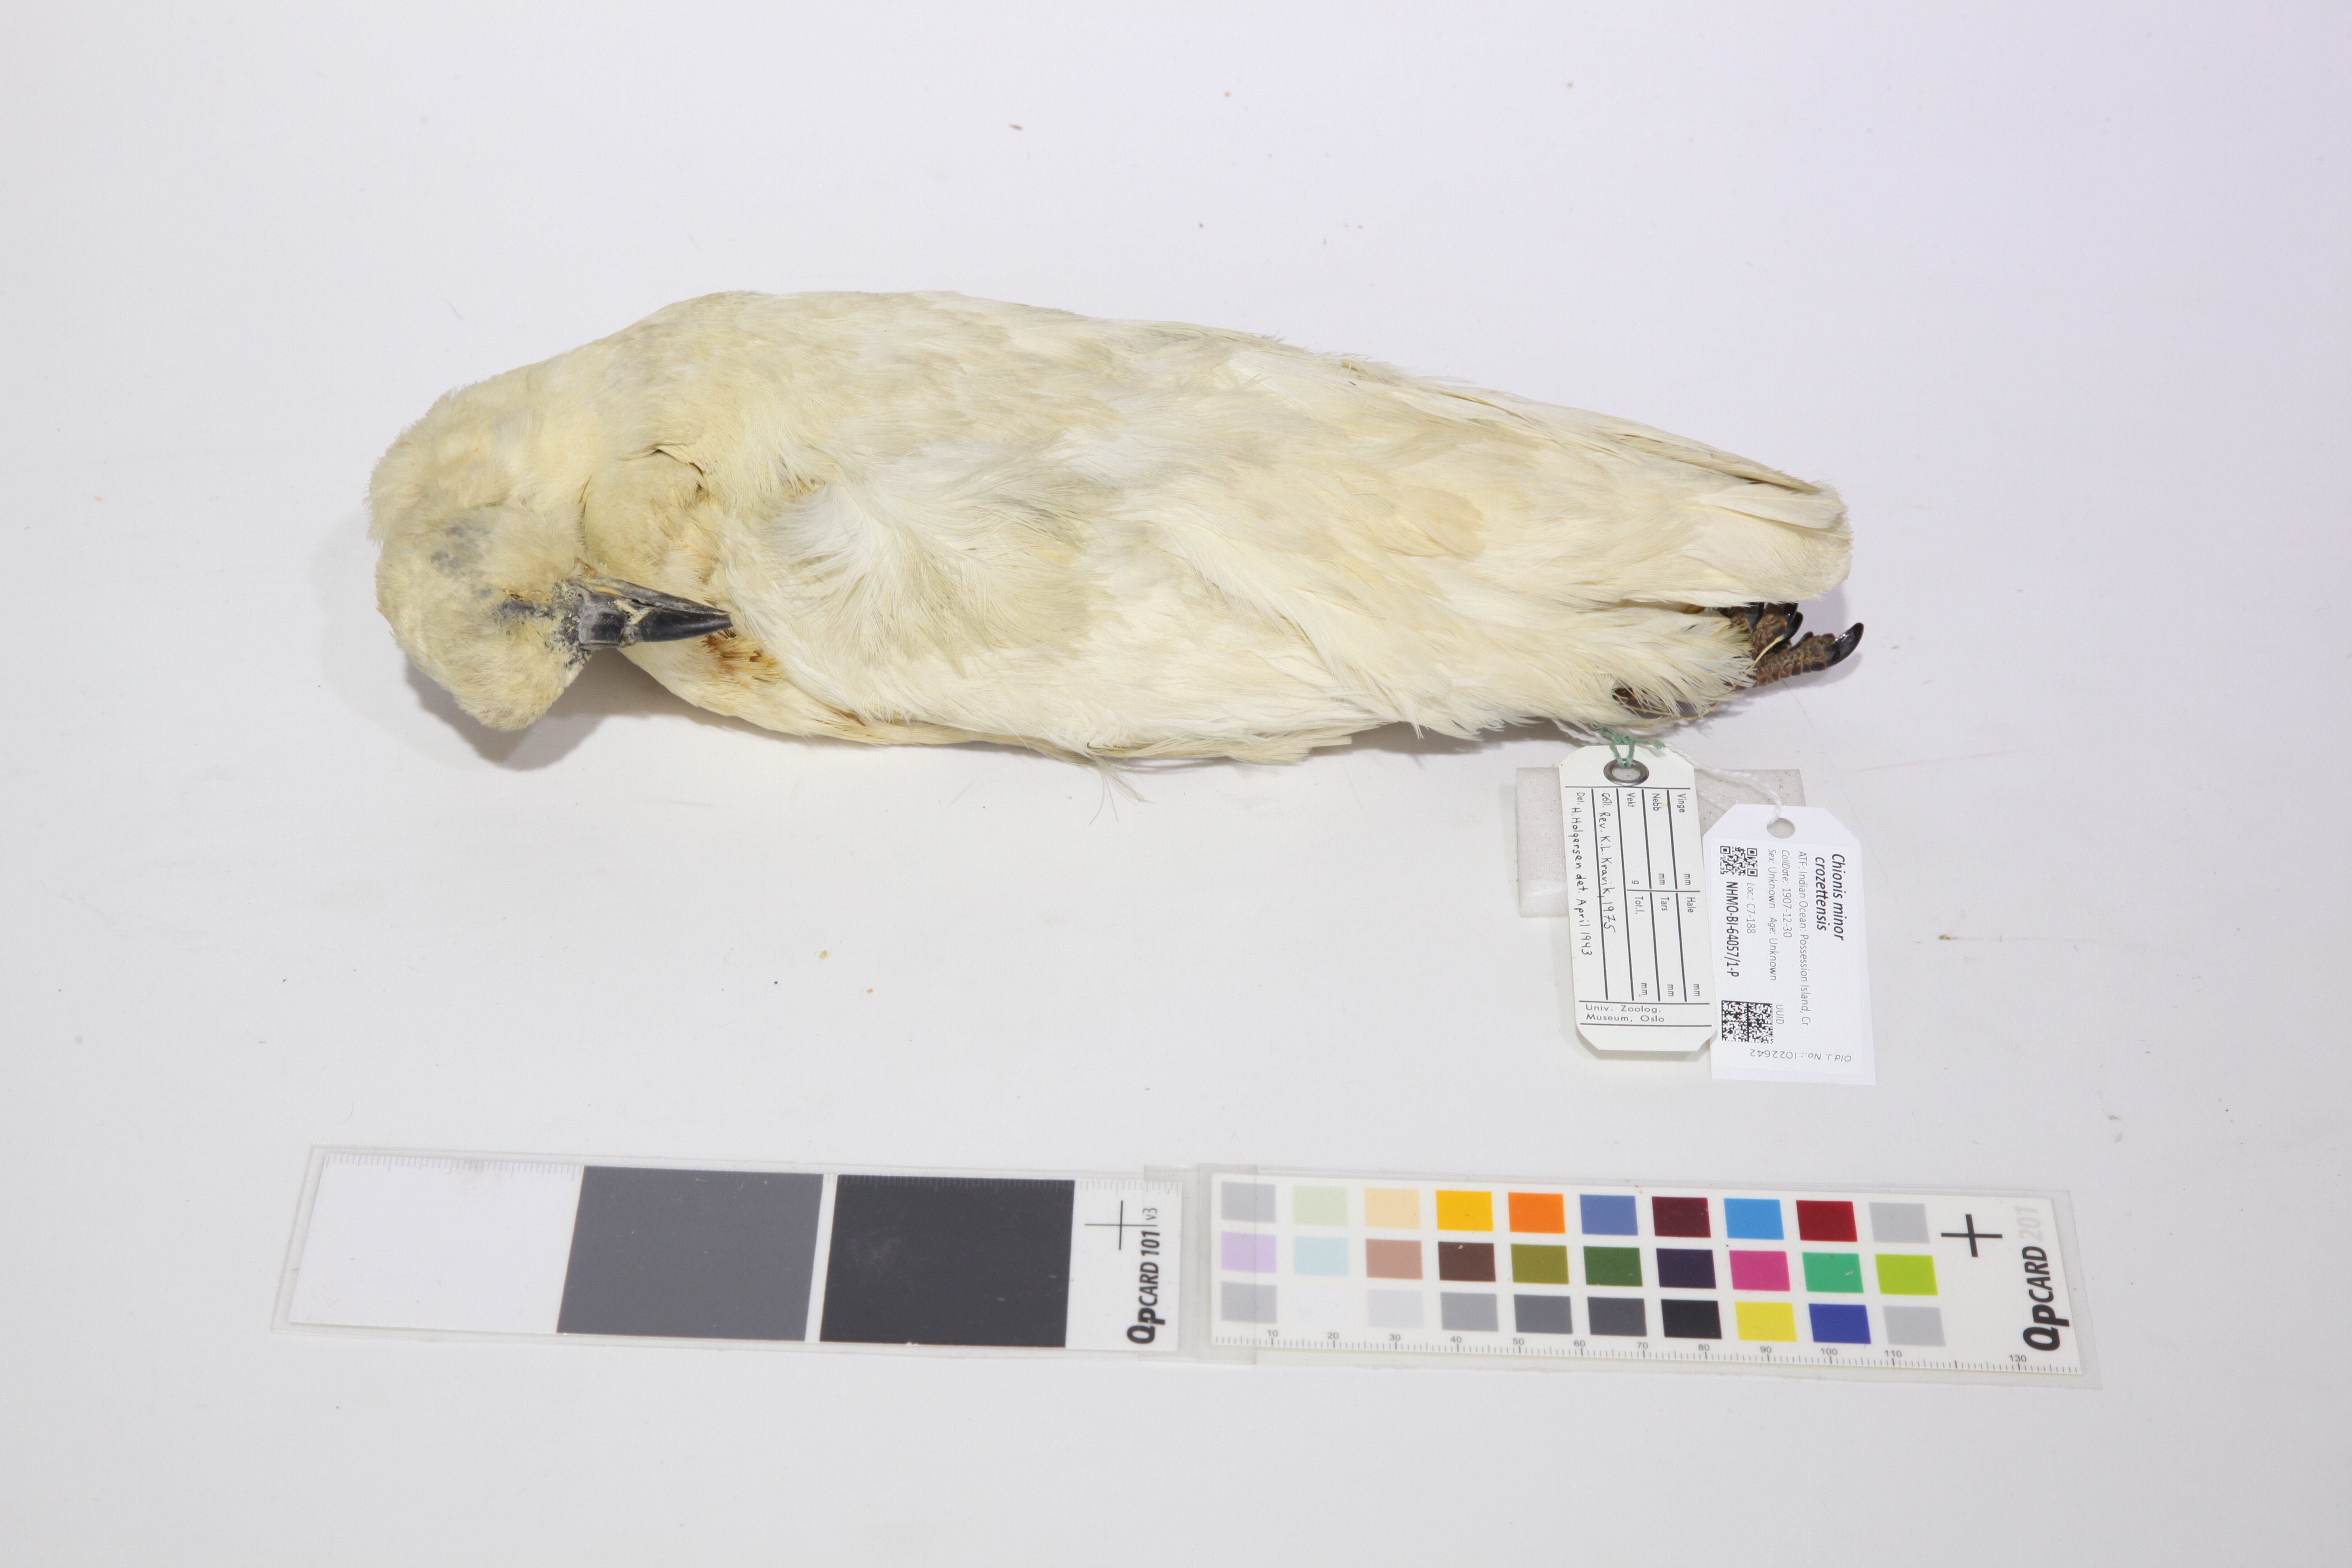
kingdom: Animalia
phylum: Chordata
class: Aves
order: Charadriiformes
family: Chionidae
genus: Chionis
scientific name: Chionis minor
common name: Black-faced sheathbill
